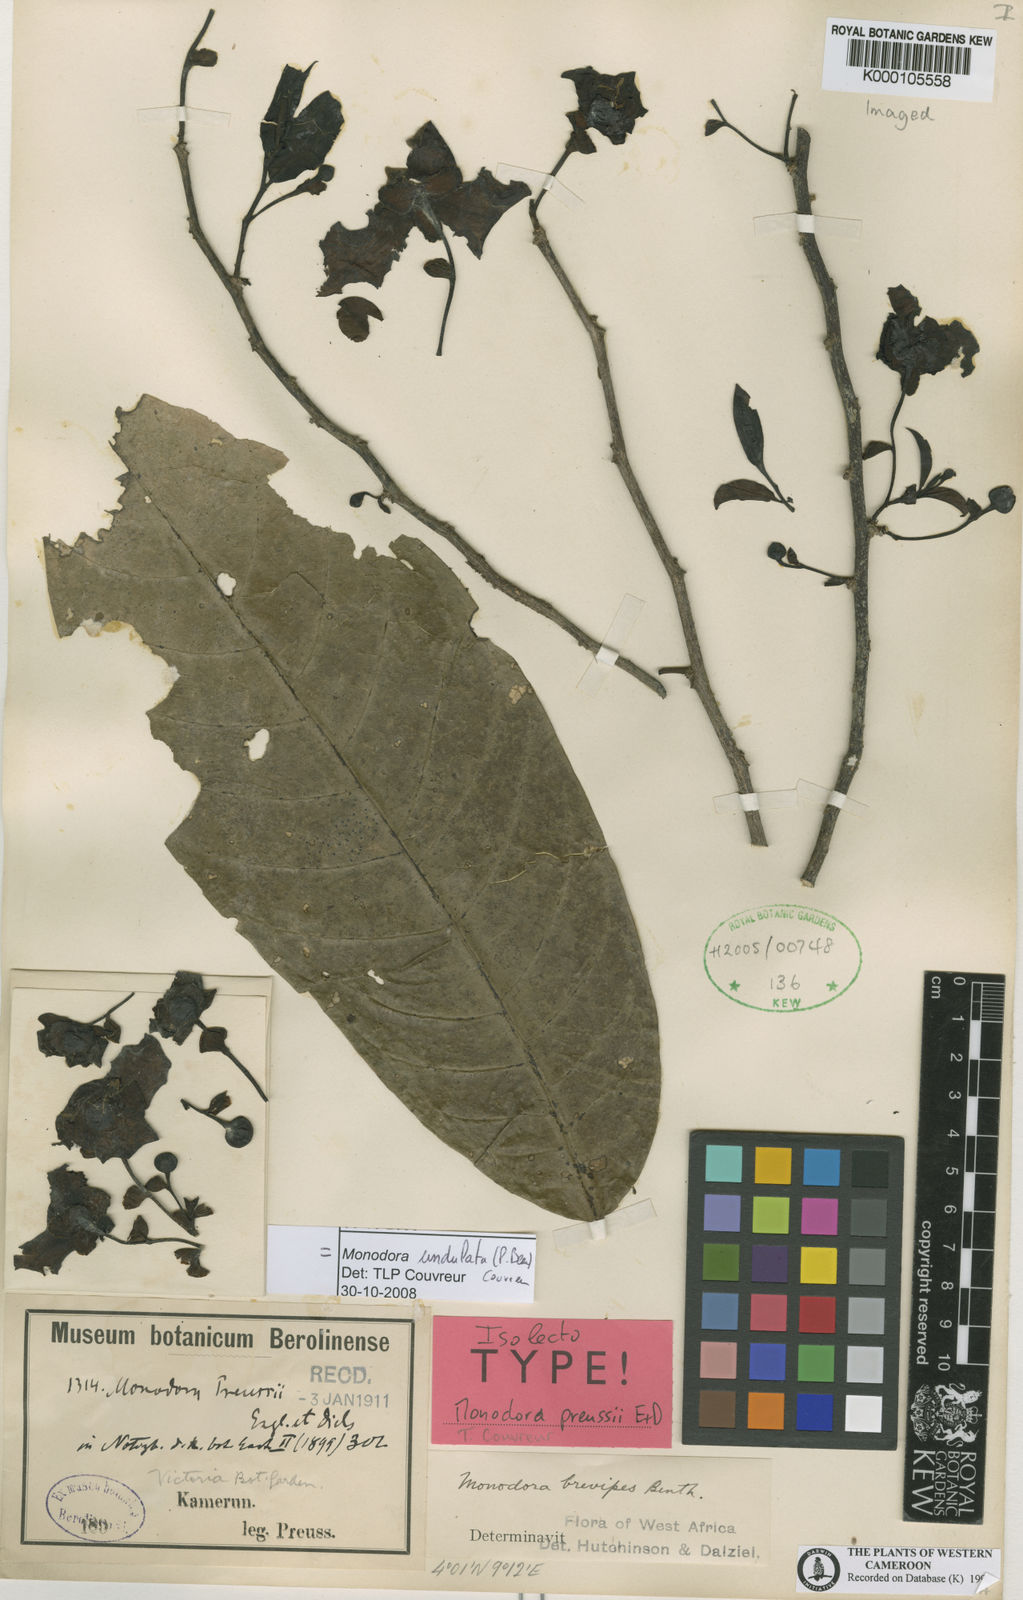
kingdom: Plantae
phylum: Tracheophyta
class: Magnoliopsida
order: Magnoliales
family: Annonaceae
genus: Monodora
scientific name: Monodora undulata
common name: Yellow-flower-nutmeg
